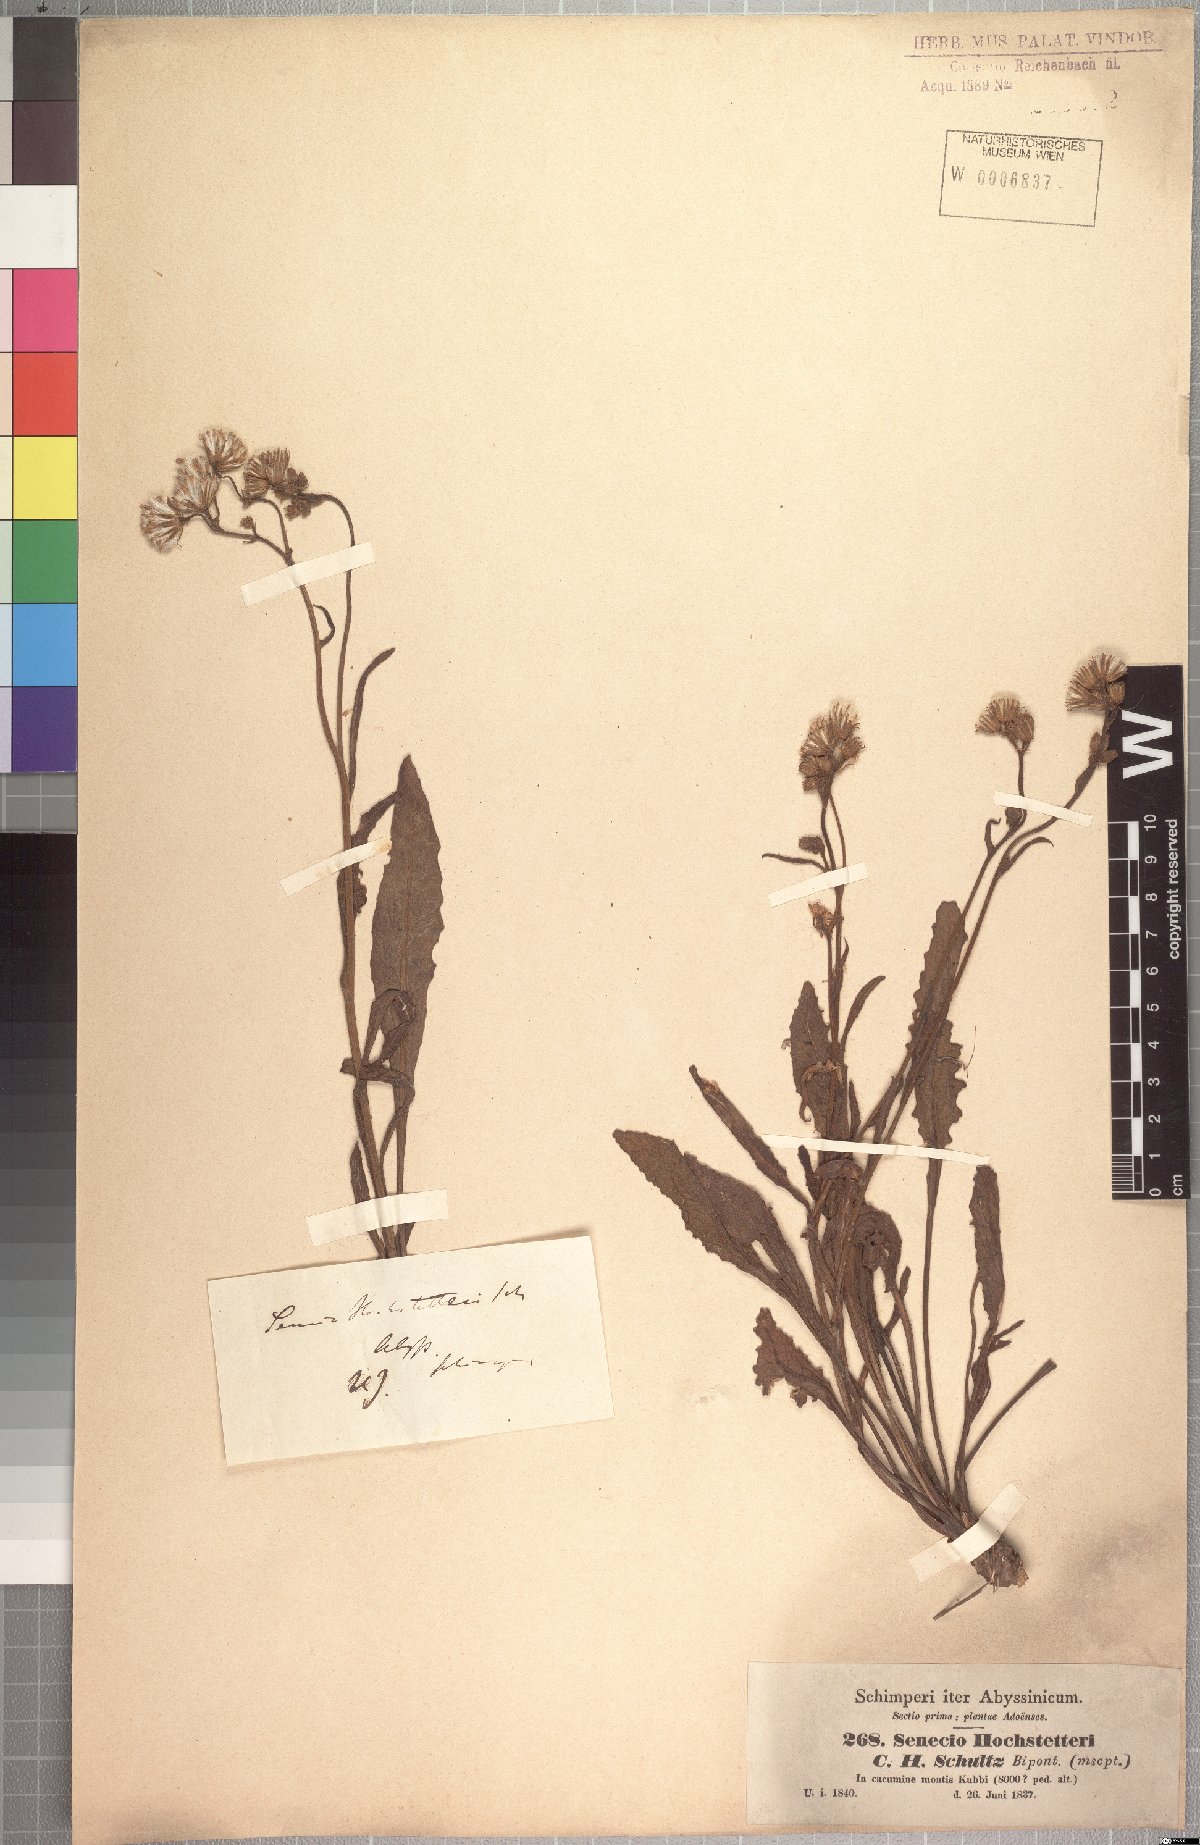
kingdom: Plantae
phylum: Tracheophyta
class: Magnoliopsida
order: Asterales
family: Asteraceae
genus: Senecio
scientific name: Senecio hochstetteri
